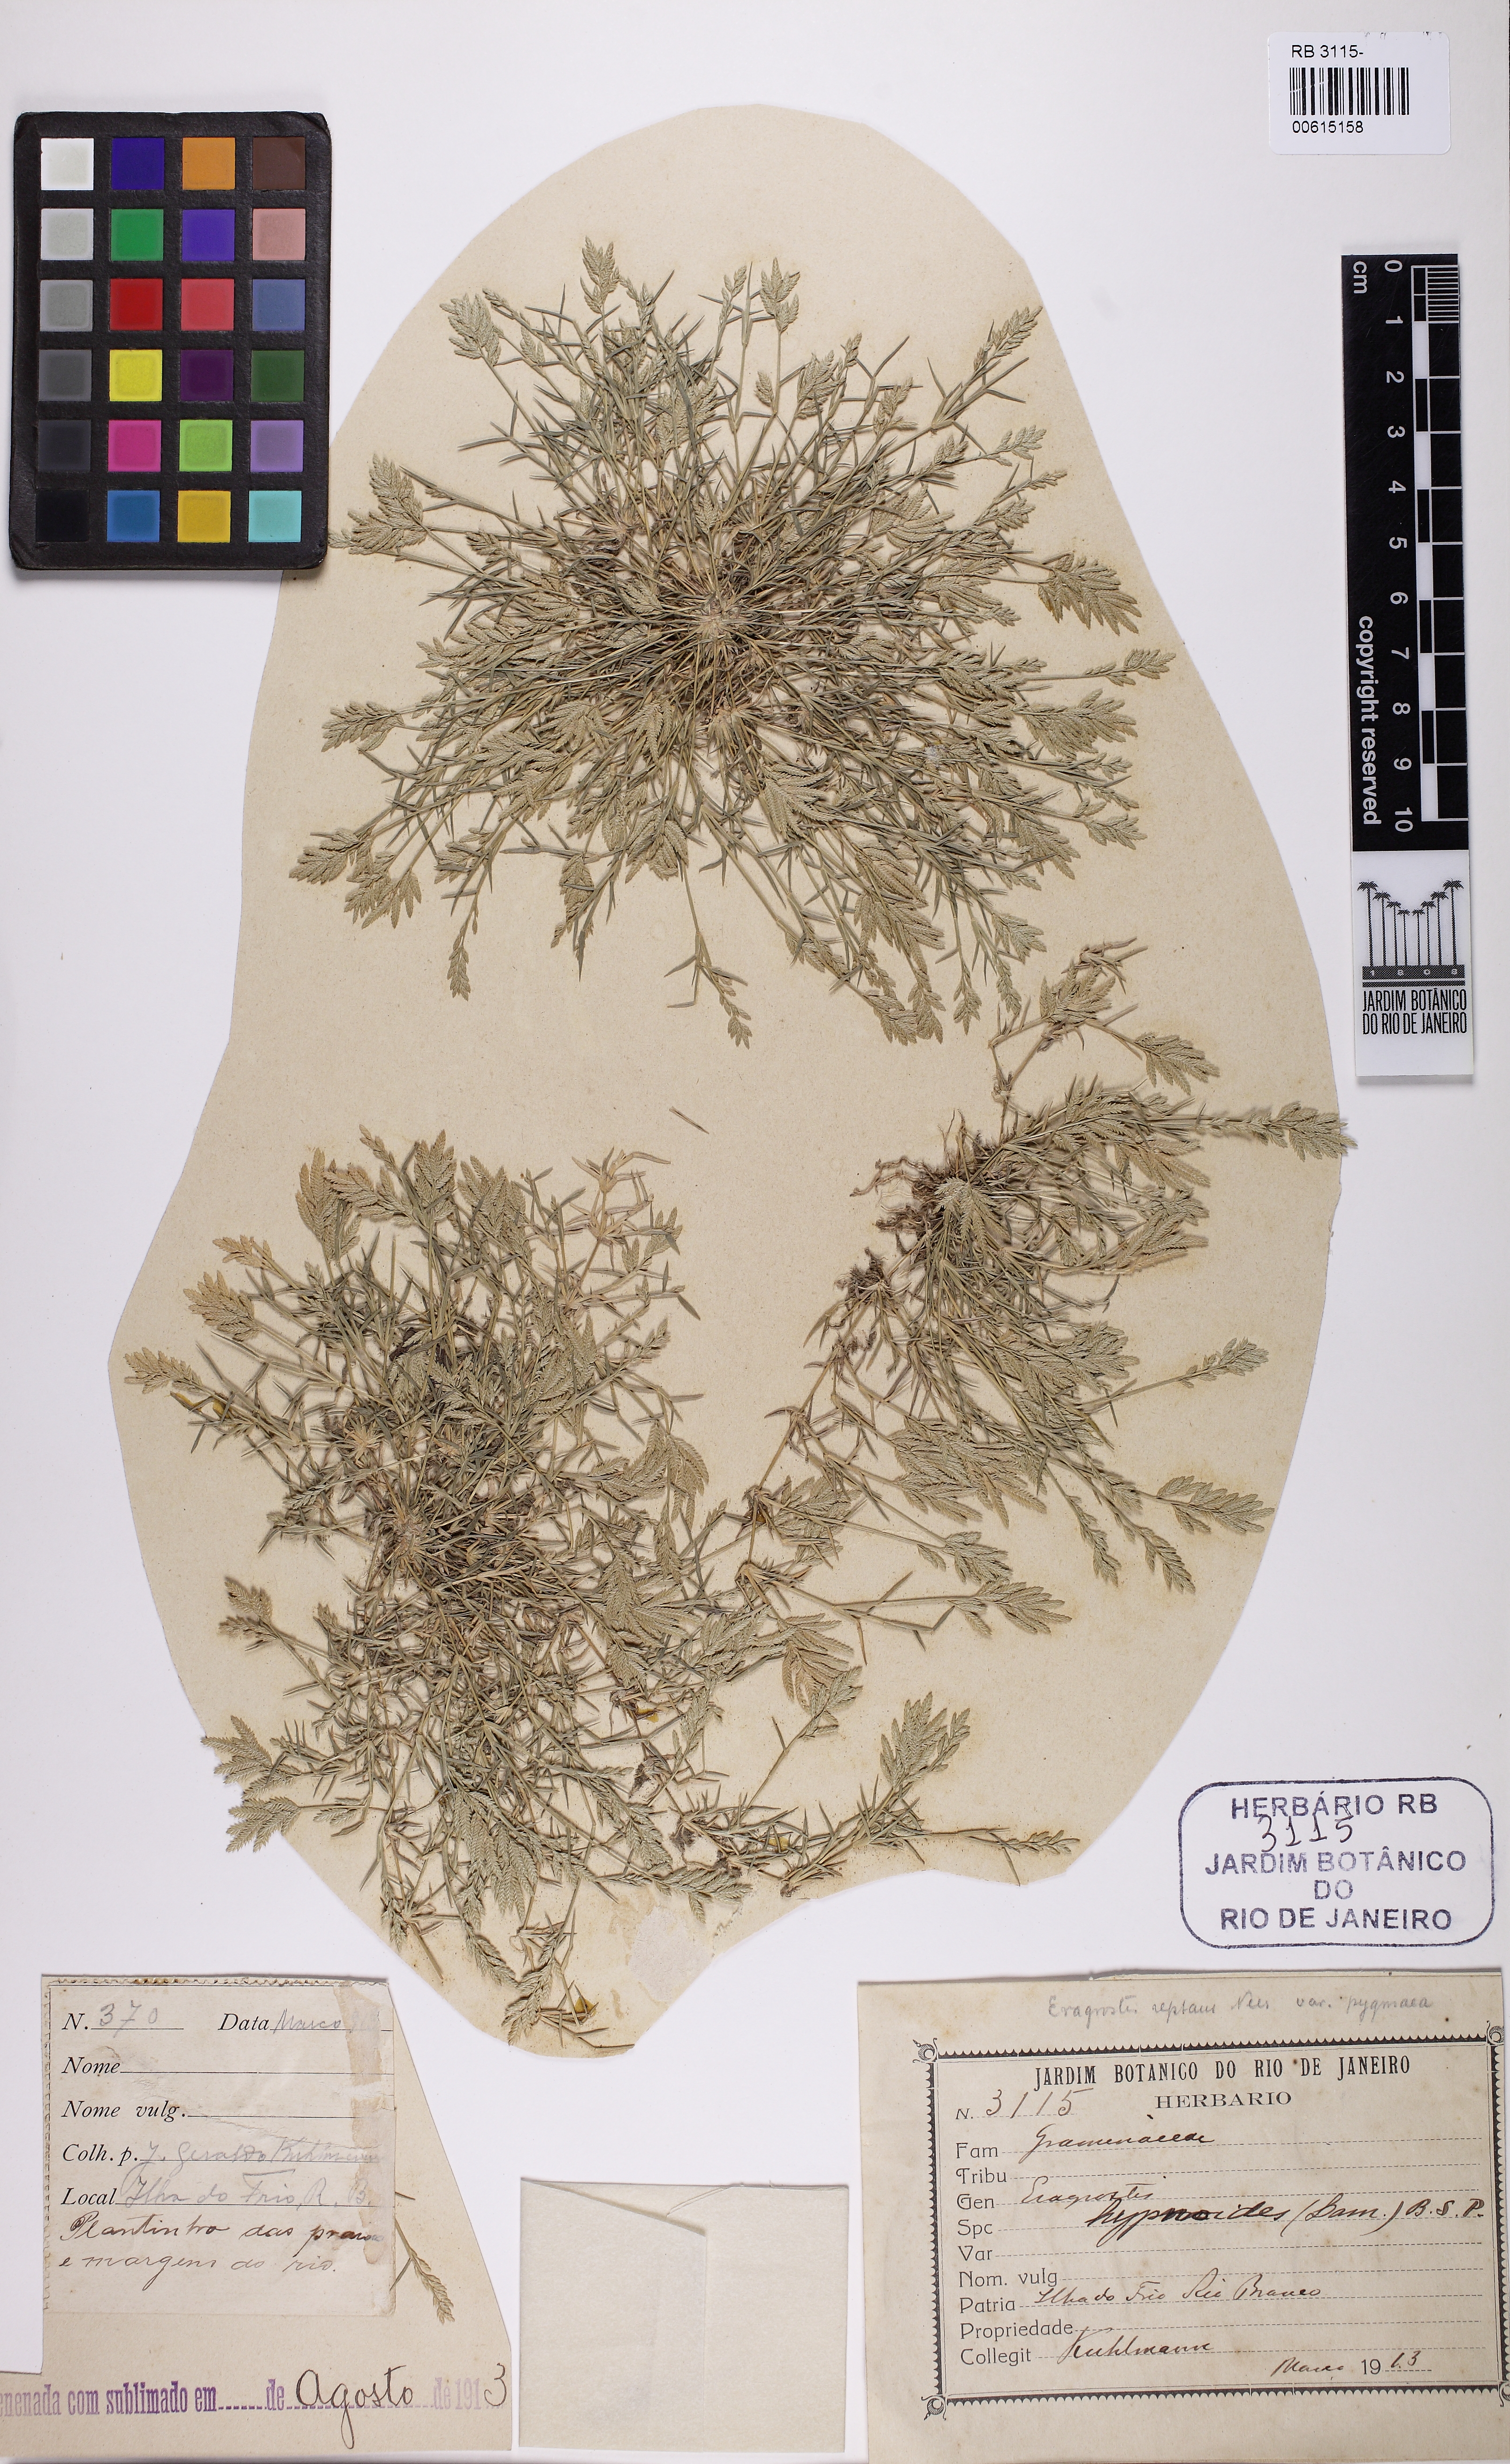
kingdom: Plantae
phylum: Tracheophyta
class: Liliopsida
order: Poales
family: Poaceae
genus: Eragrostis
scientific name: Eragrostis hypnoides
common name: Creeping love grass
